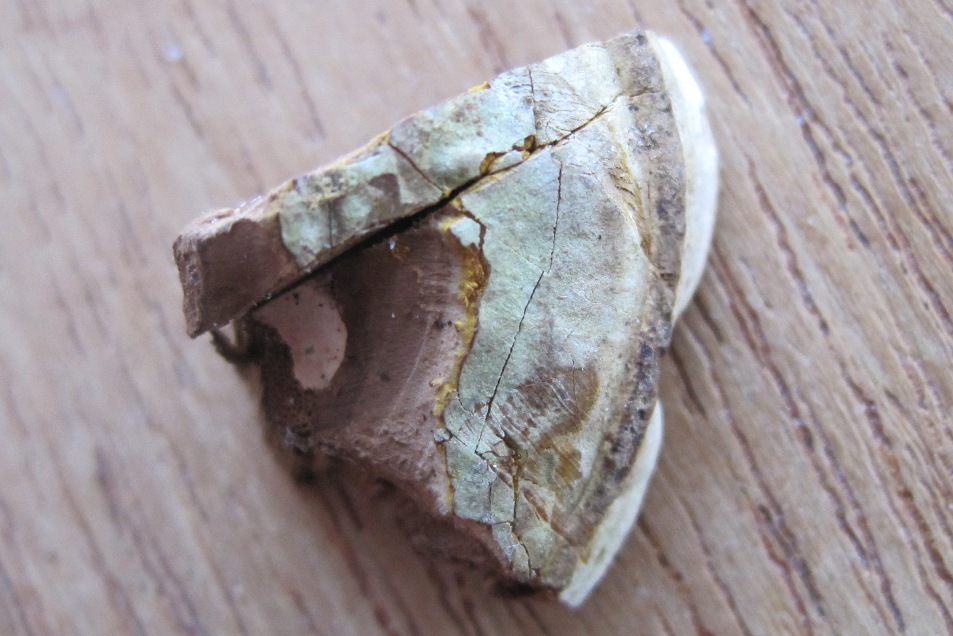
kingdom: Fungi
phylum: Basidiomycota
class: Agaricomycetes
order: Polyporales
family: Polyporaceae
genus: Ganoderma
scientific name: Ganoderma applanatum
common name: flad lakporesvamp
